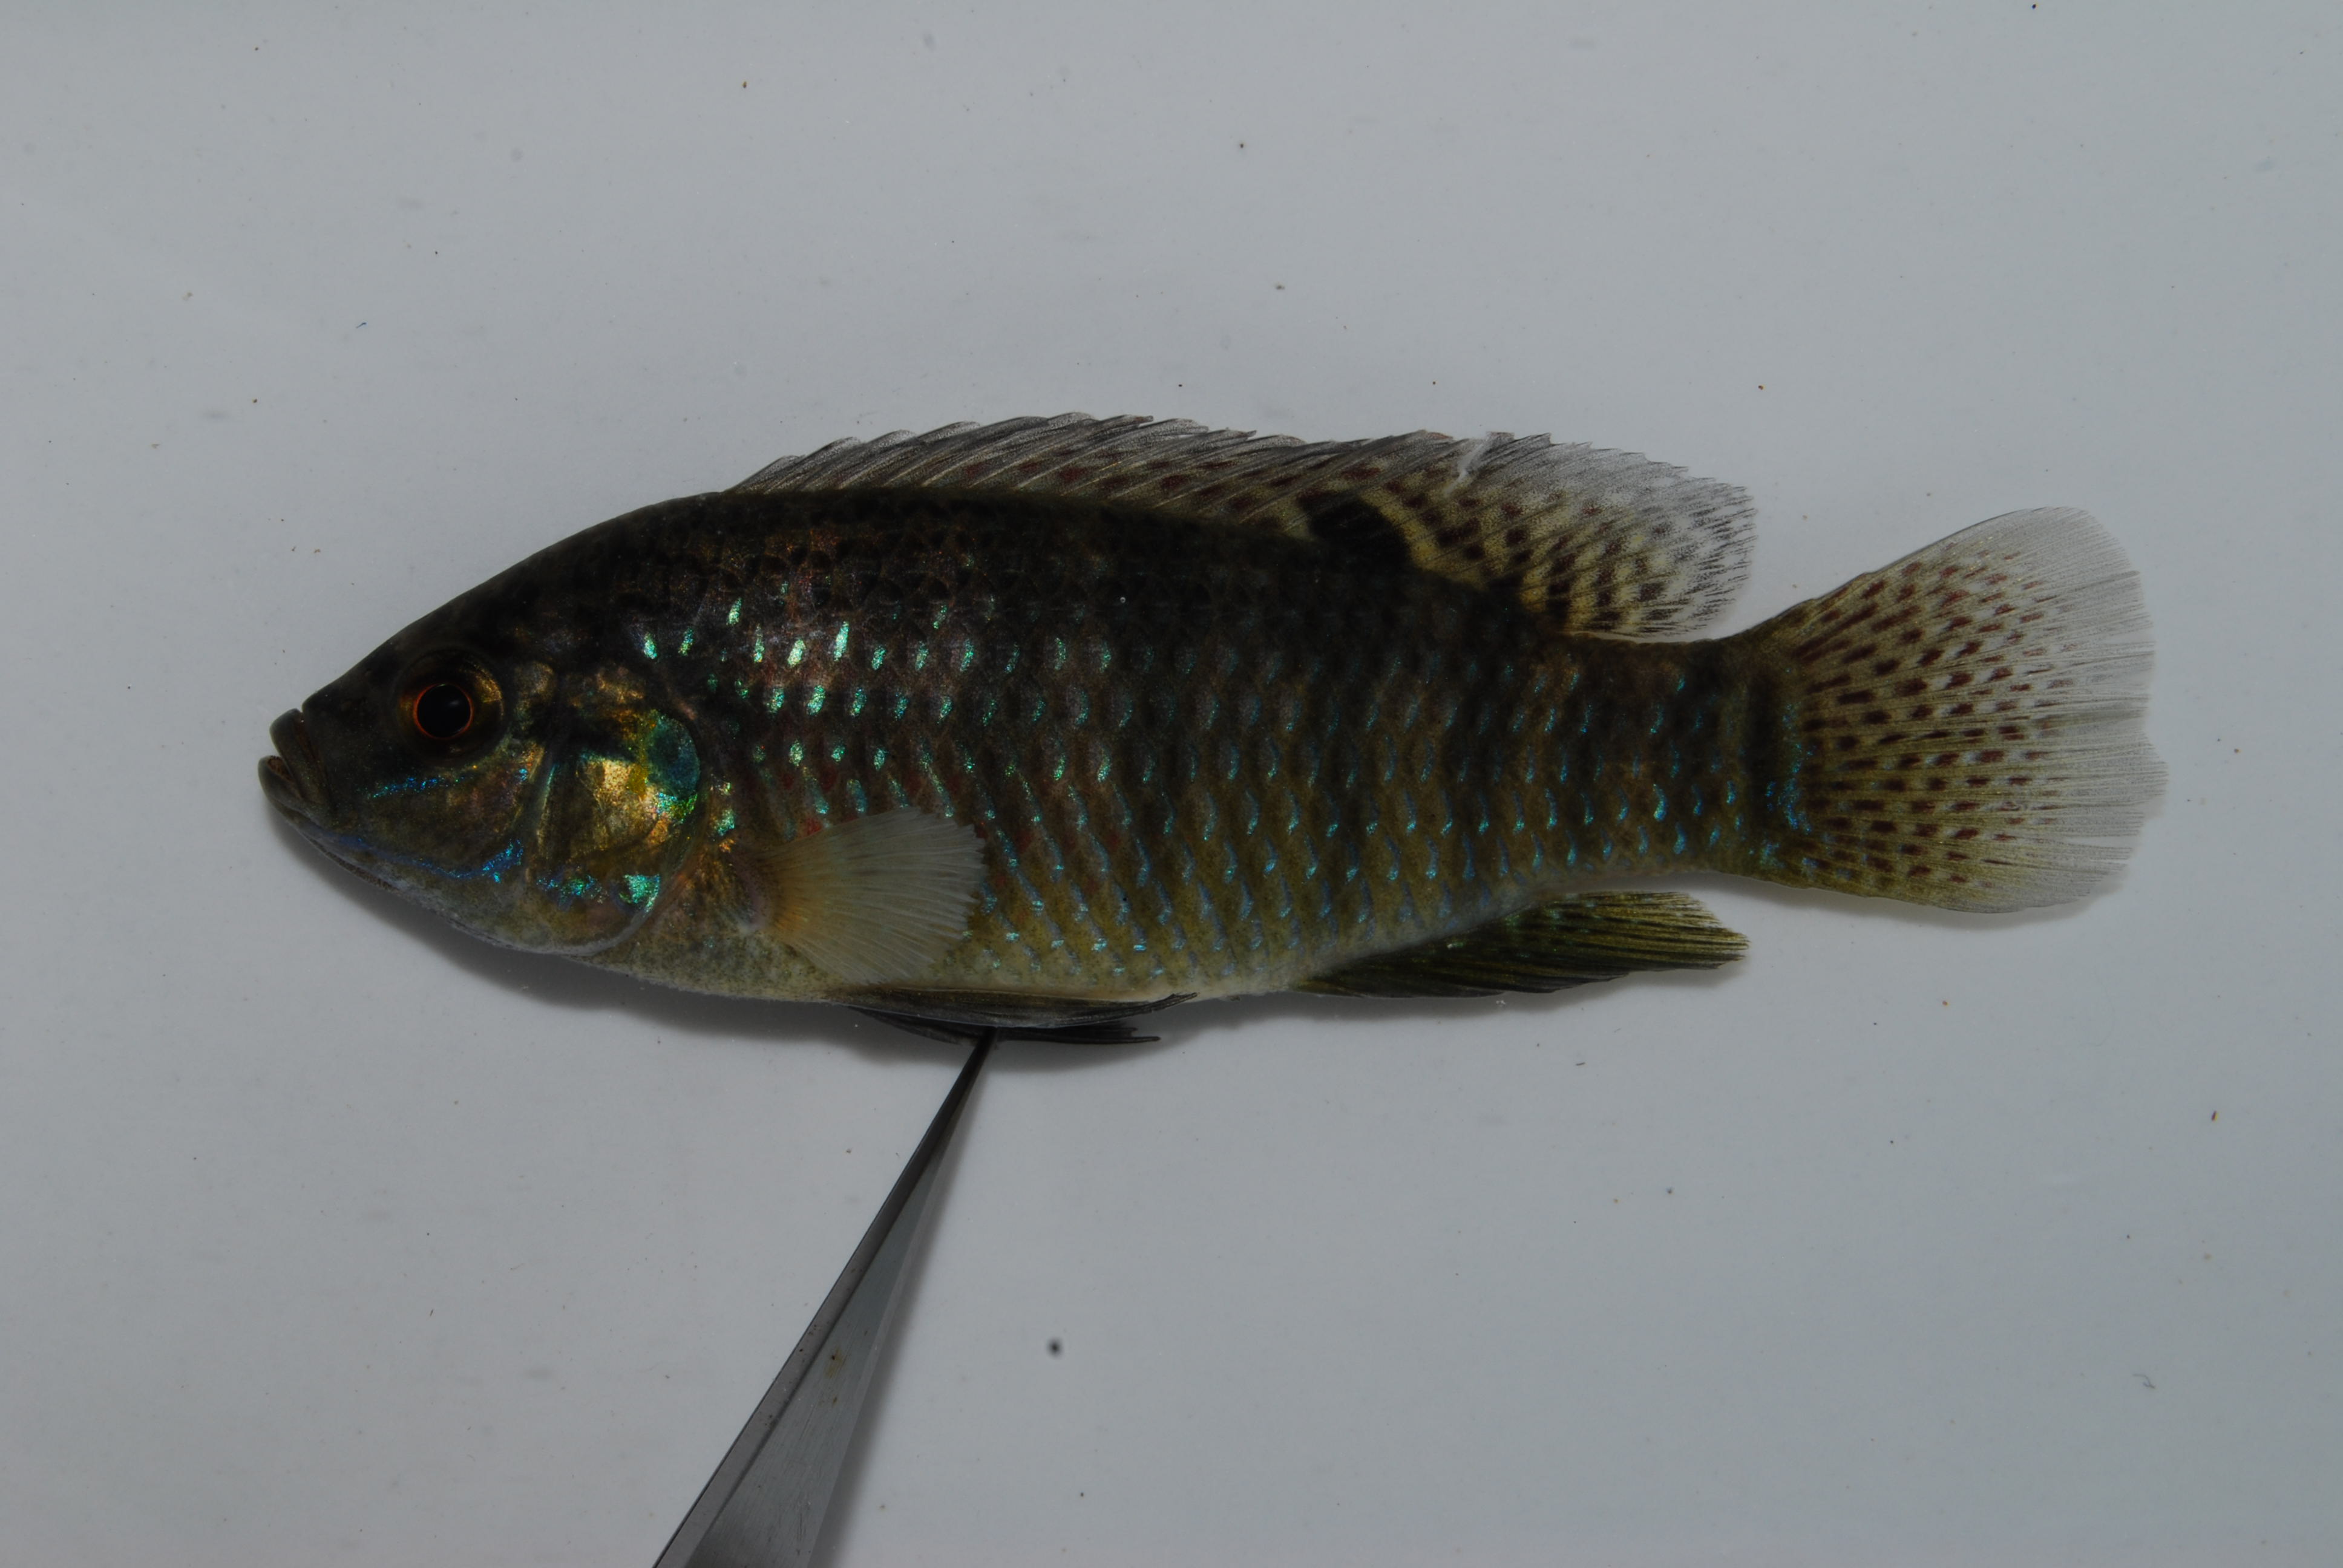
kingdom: Animalia
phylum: Chordata
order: Perciformes
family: Cichlidae
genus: Tilapia
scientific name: Tilapia ruweti
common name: Okavango tilapia
